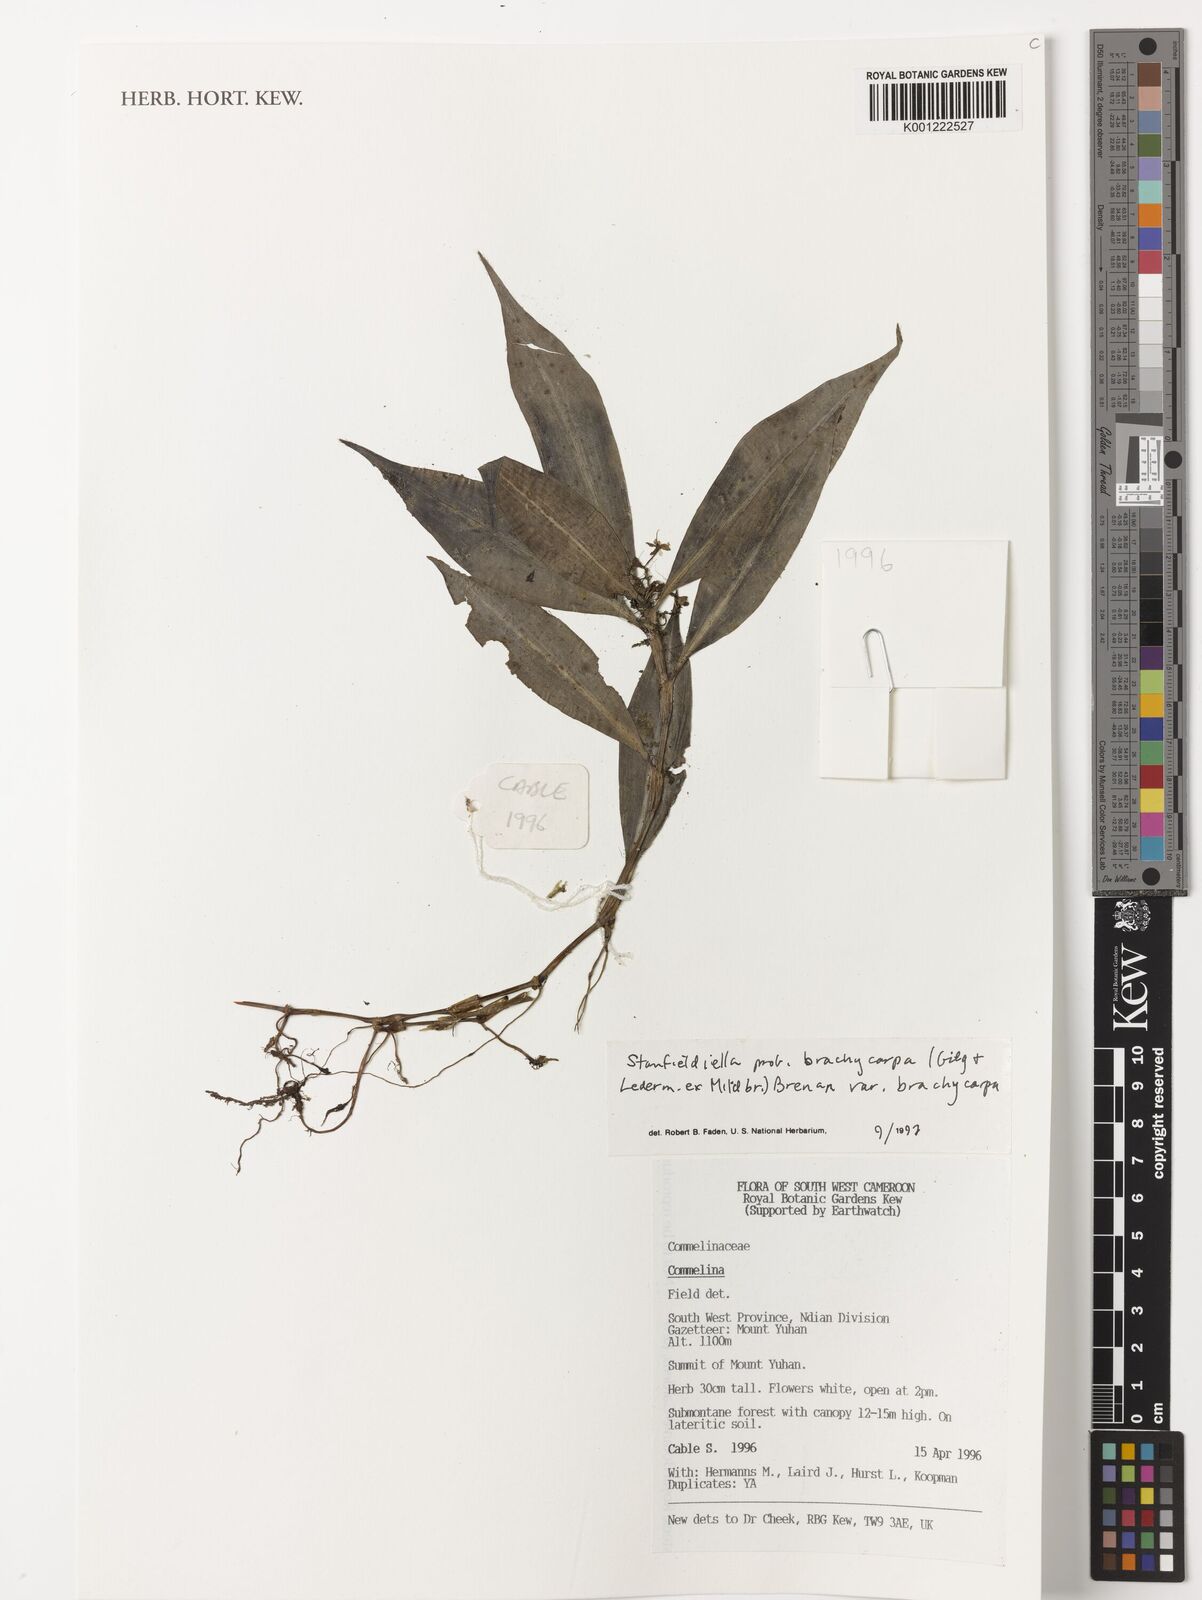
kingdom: Plantae
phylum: Tracheophyta
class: Liliopsida
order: Commelinales
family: Commelinaceae
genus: Stanfieldiella
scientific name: Stanfieldiella brachycarpa
